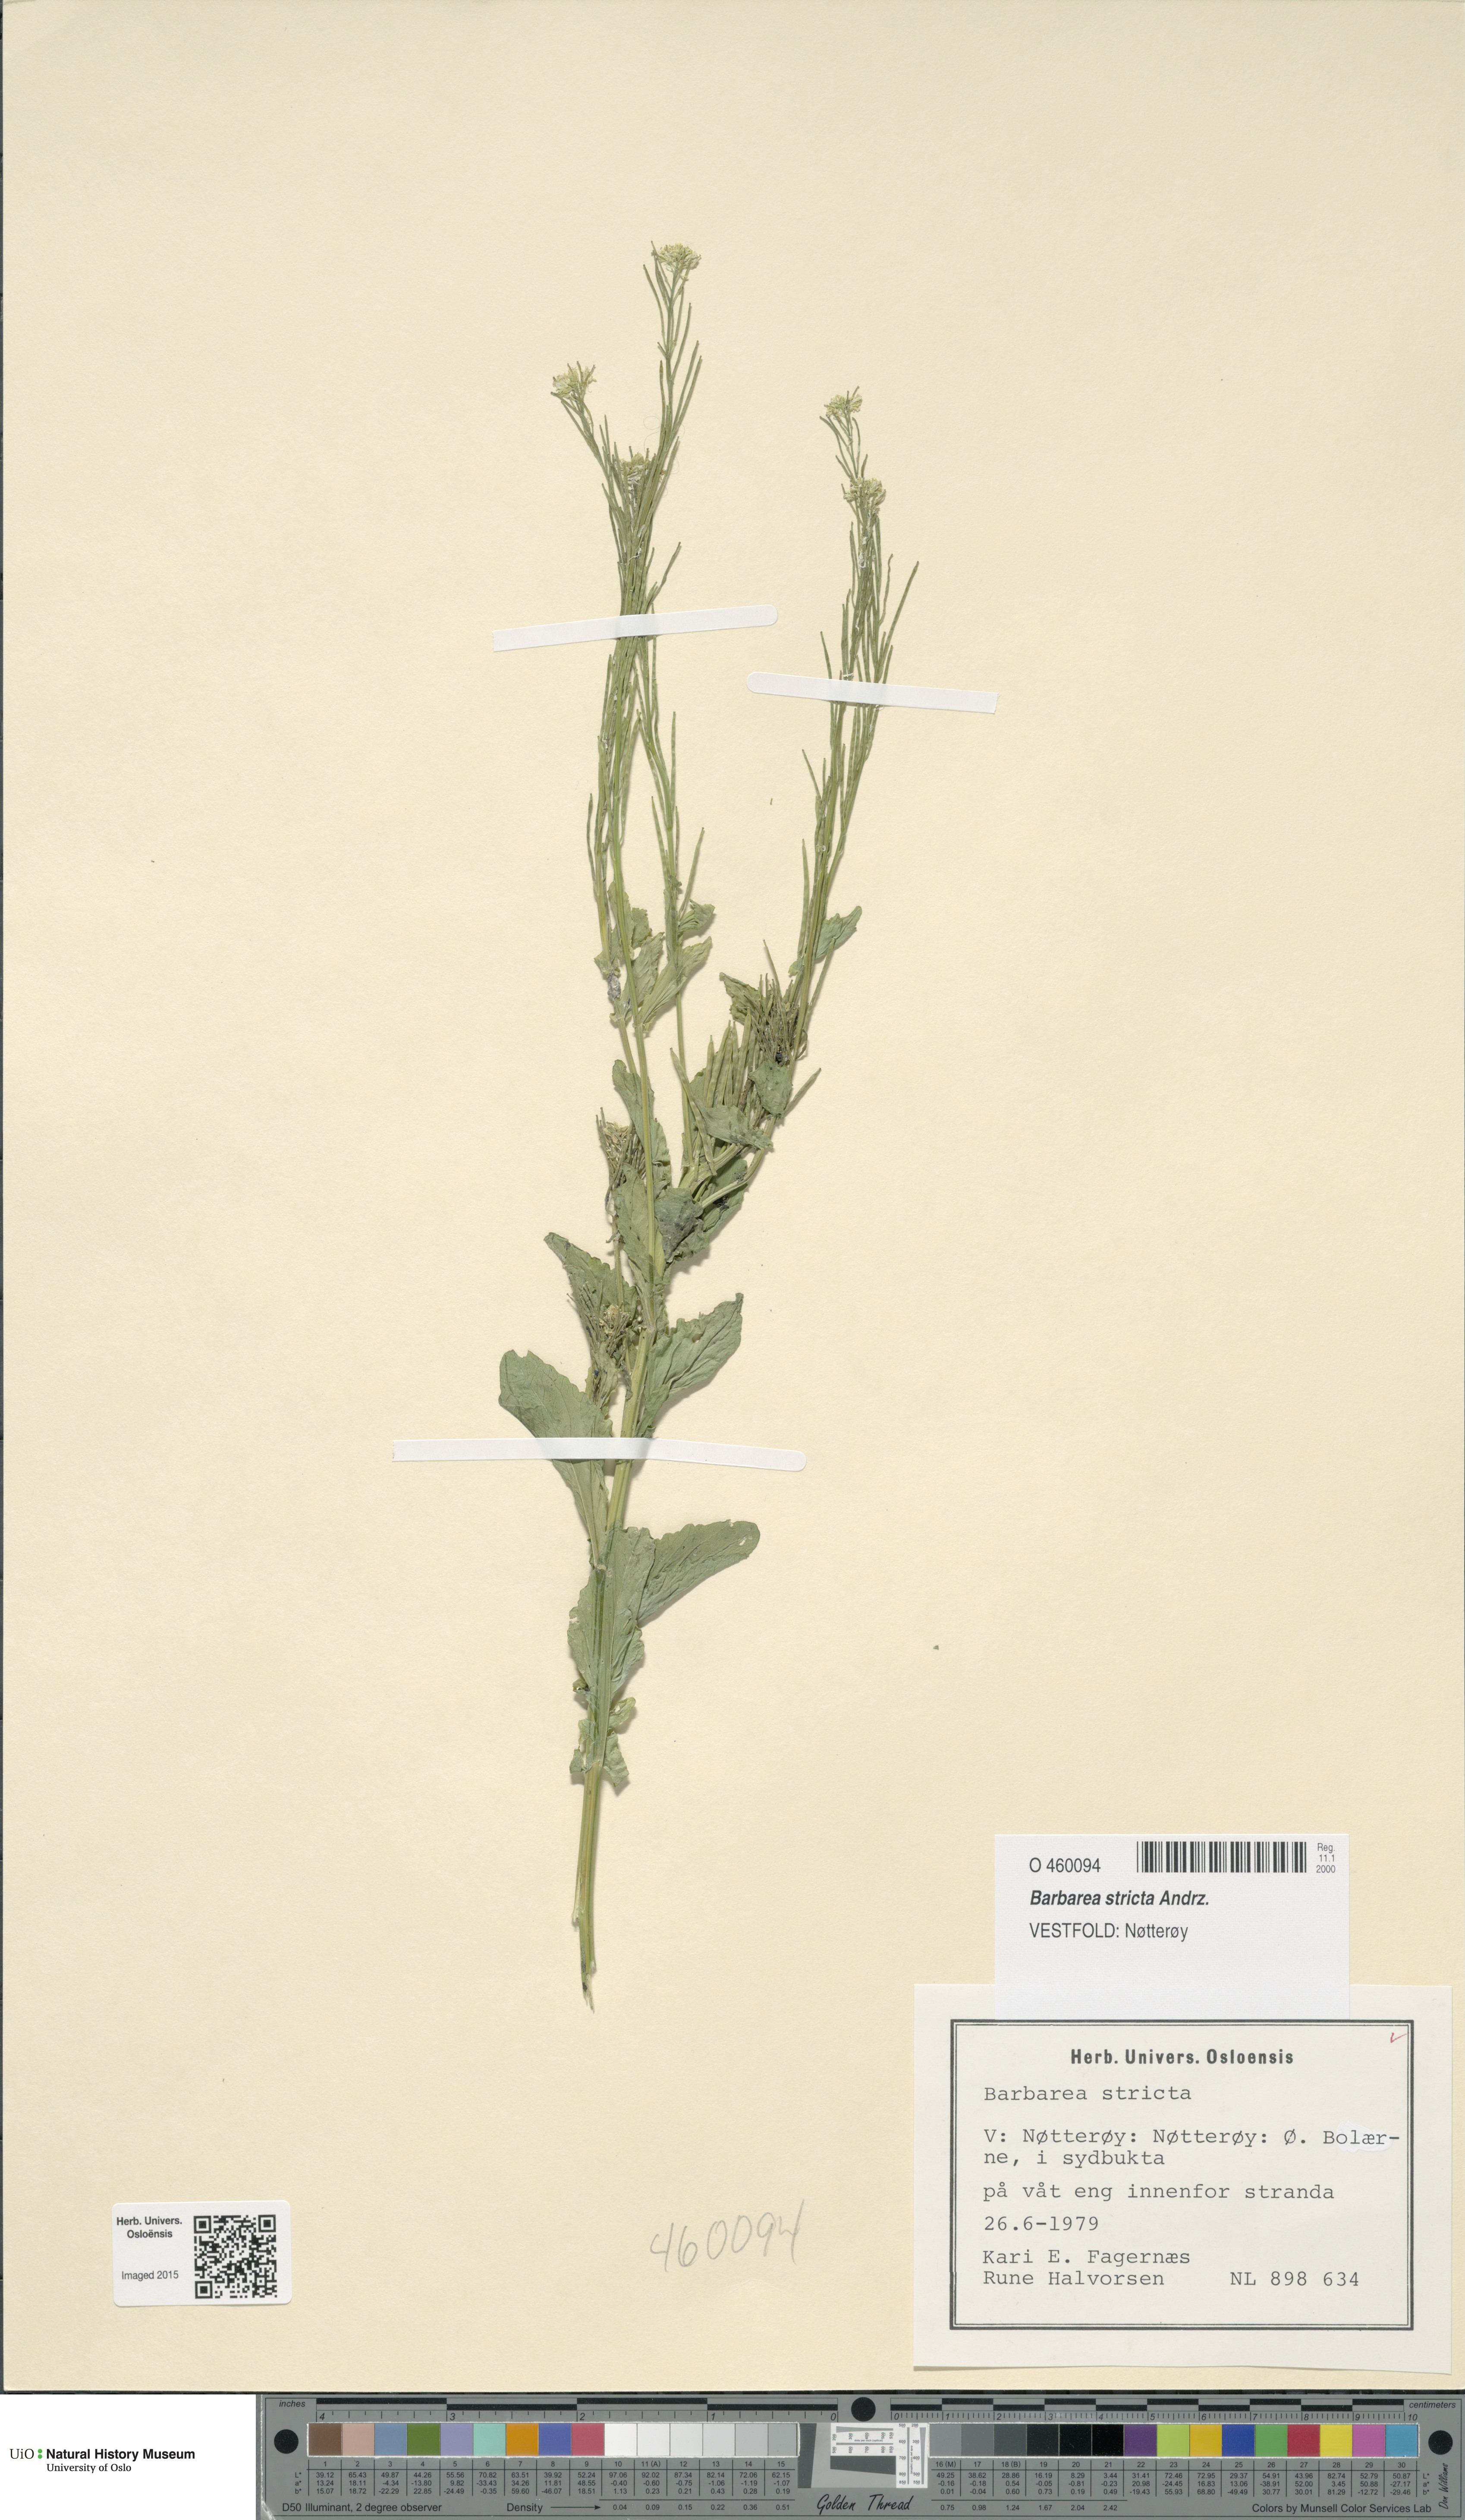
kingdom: Plantae
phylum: Tracheophyta
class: Magnoliopsida
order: Brassicales
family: Brassicaceae
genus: Barbarea
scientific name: Barbarea stricta
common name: Small-flowered winter-cress
